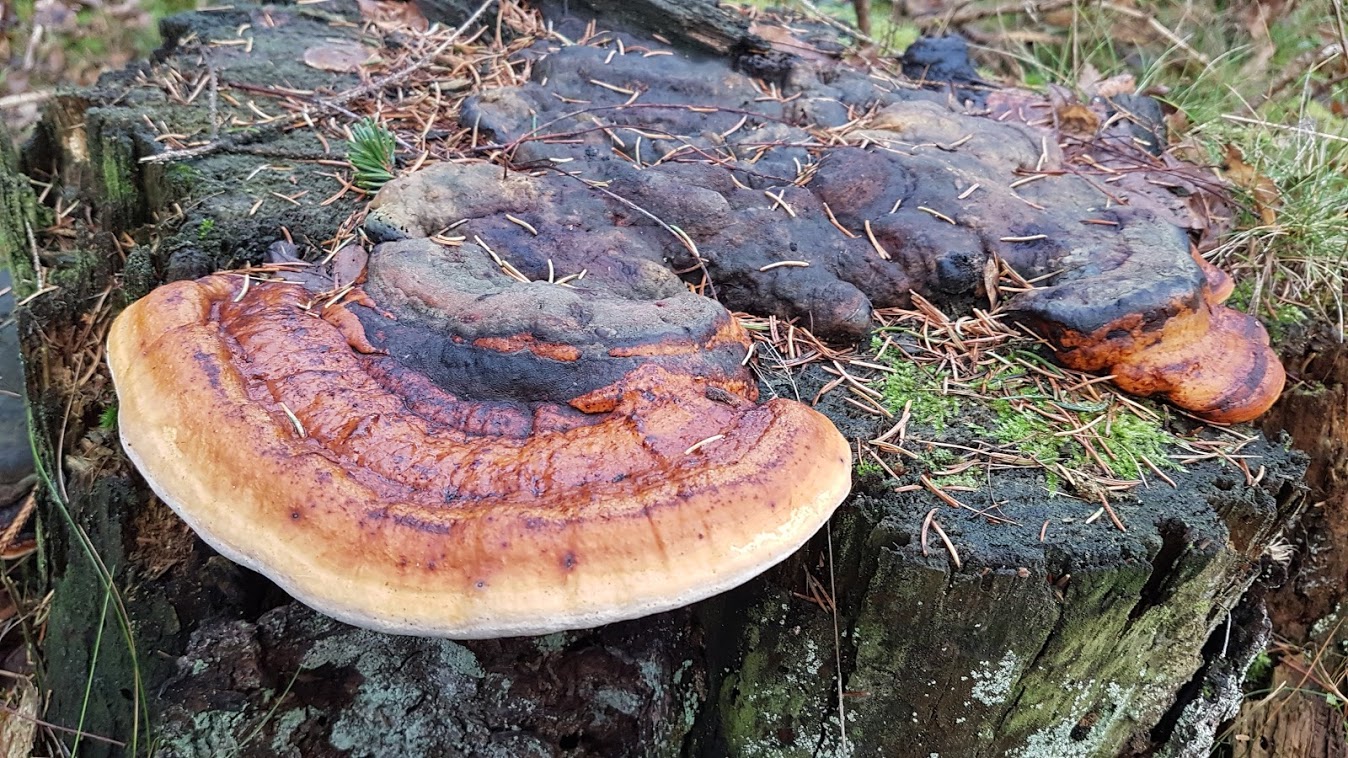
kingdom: Fungi
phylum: Basidiomycota
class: Agaricomycetes
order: Polyporales
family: Fomitopsidaceae
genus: Fomitopsis
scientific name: Fomitopsis pinicola
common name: randbæltet hovporesvamp
